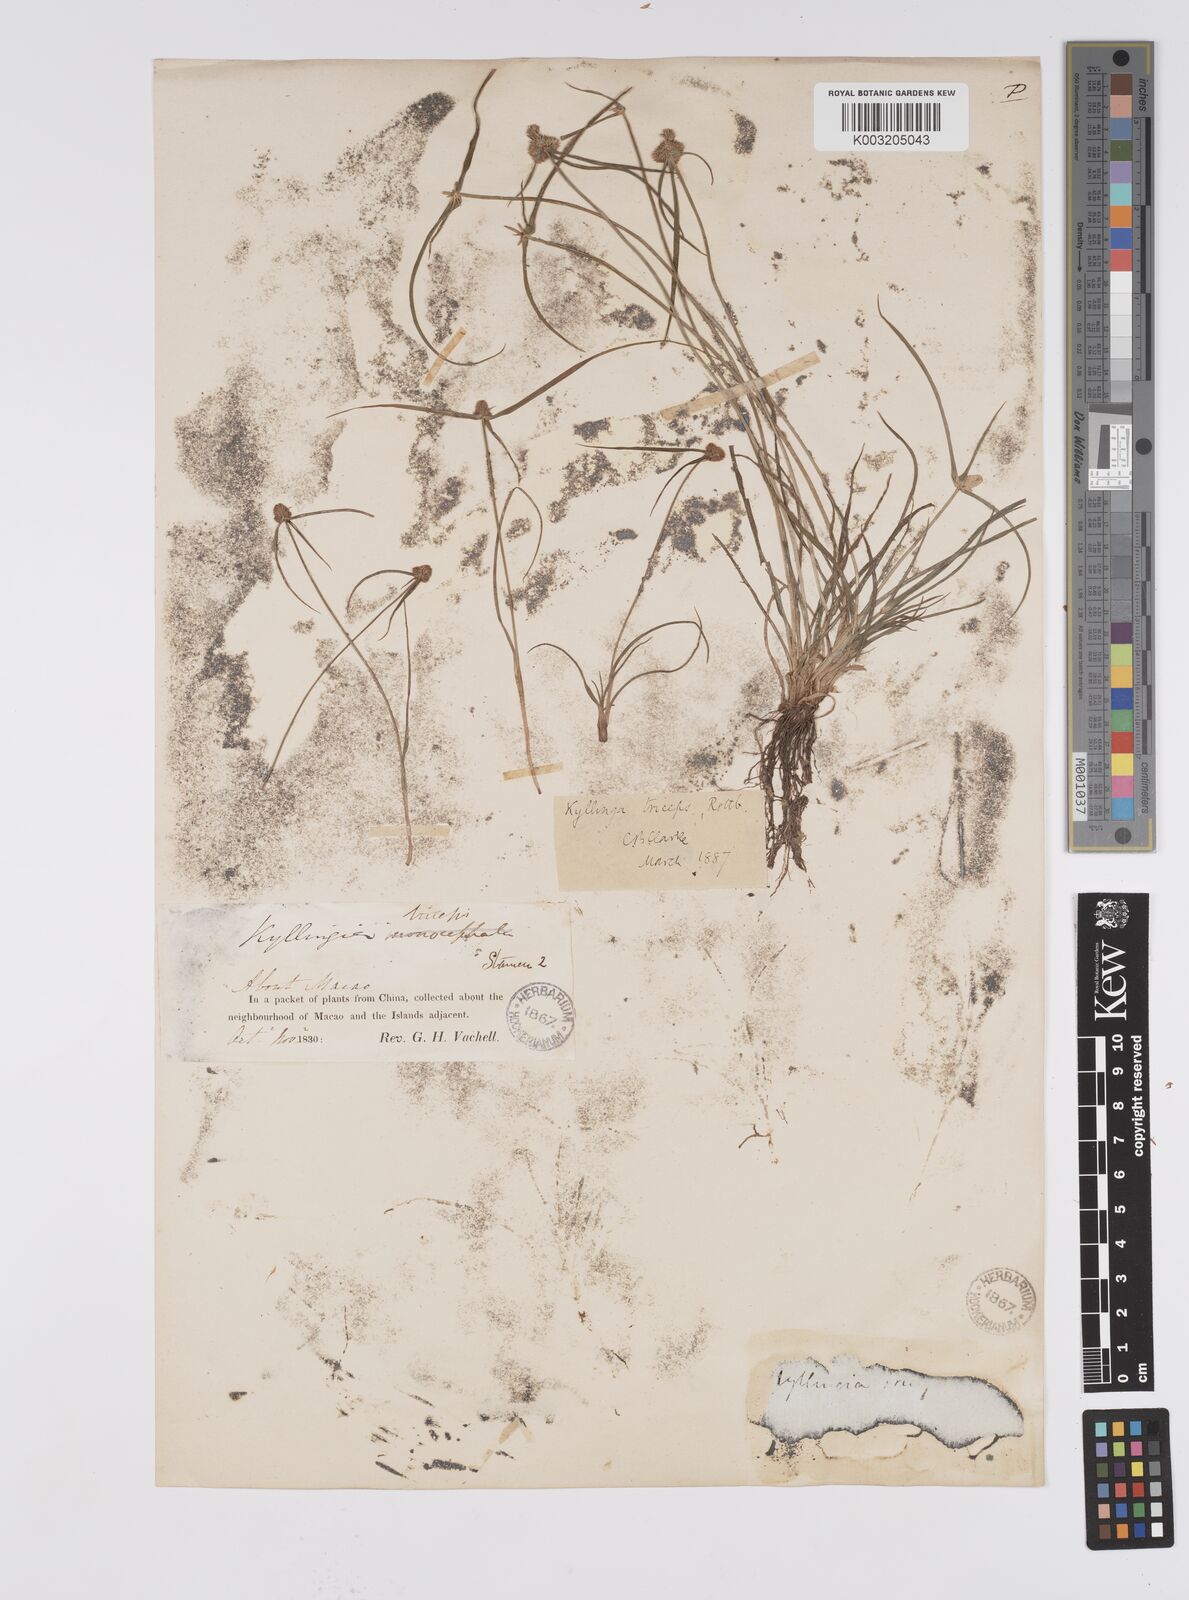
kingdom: Plantae
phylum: Tracheophyta
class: Liliopsida
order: Poales
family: Cyperaceae
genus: Cyperus
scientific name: Cyperus
